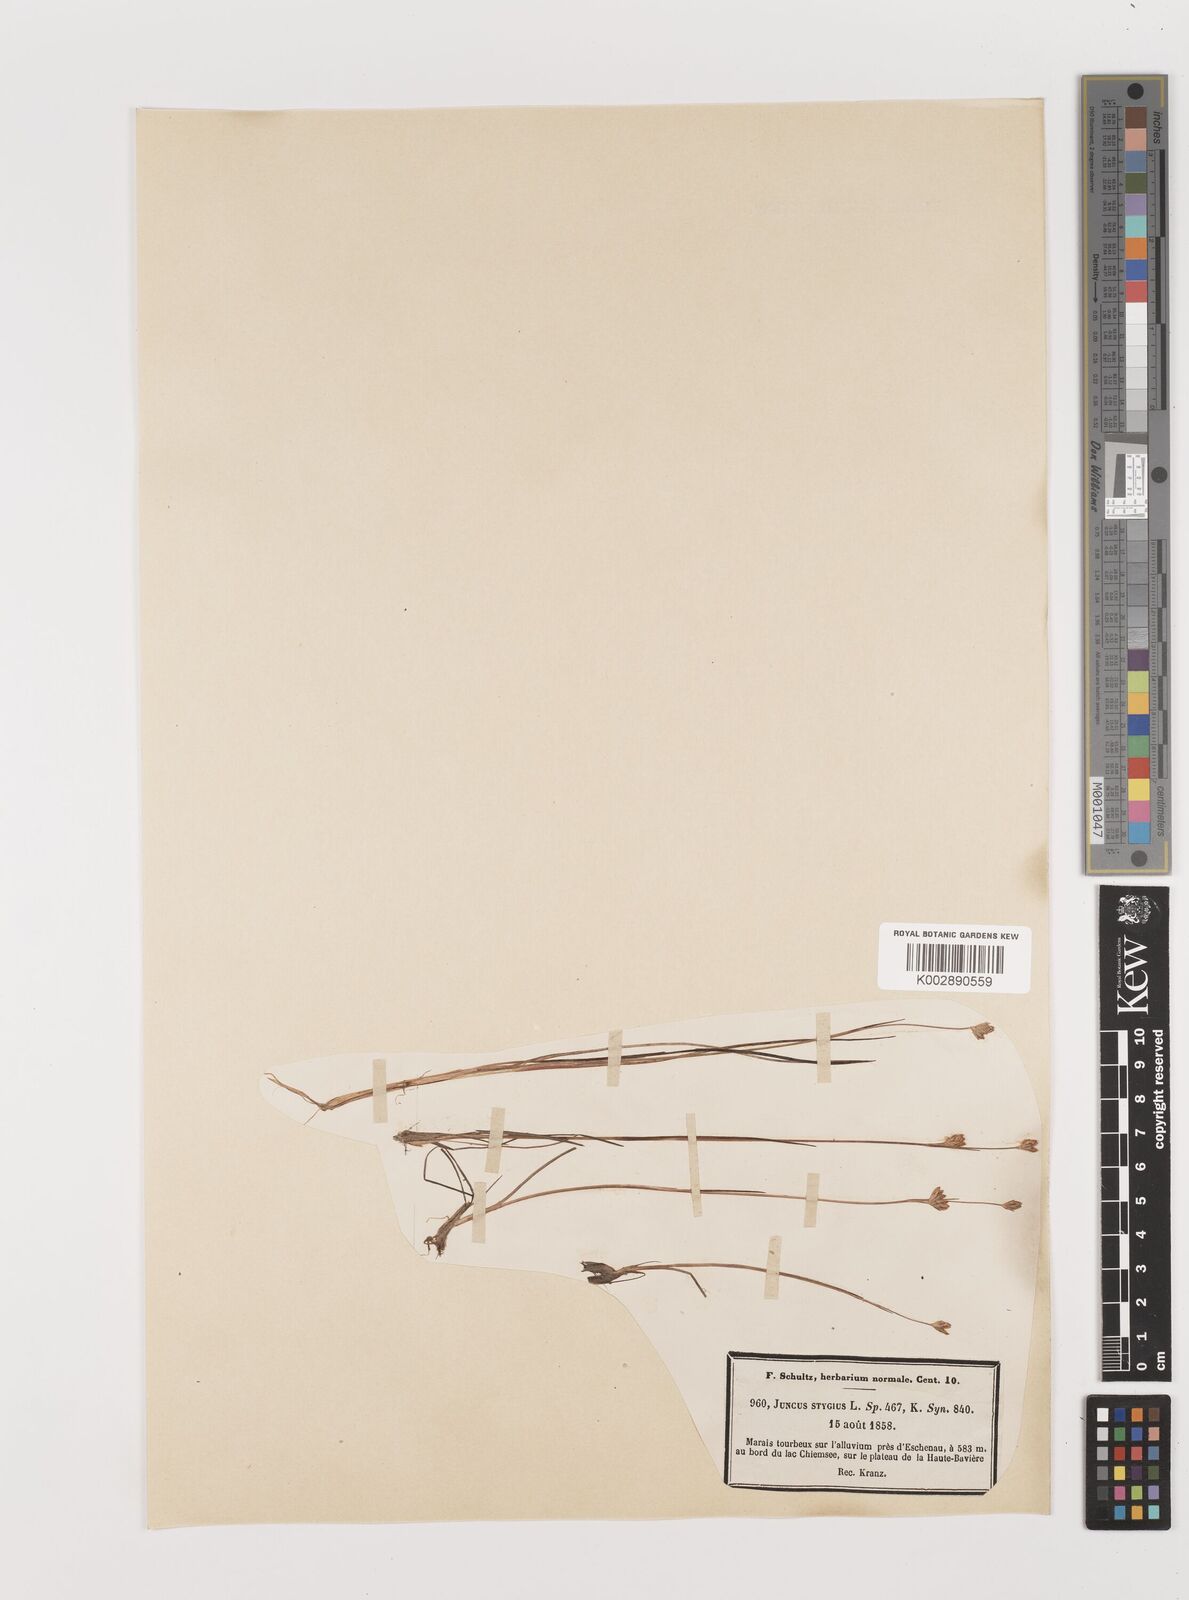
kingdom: Plantae
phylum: Tracheophyta
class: Liliopsida
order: Poales
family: Juncaceae
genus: Juncus
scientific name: Juncus stygius
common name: Bog rush
